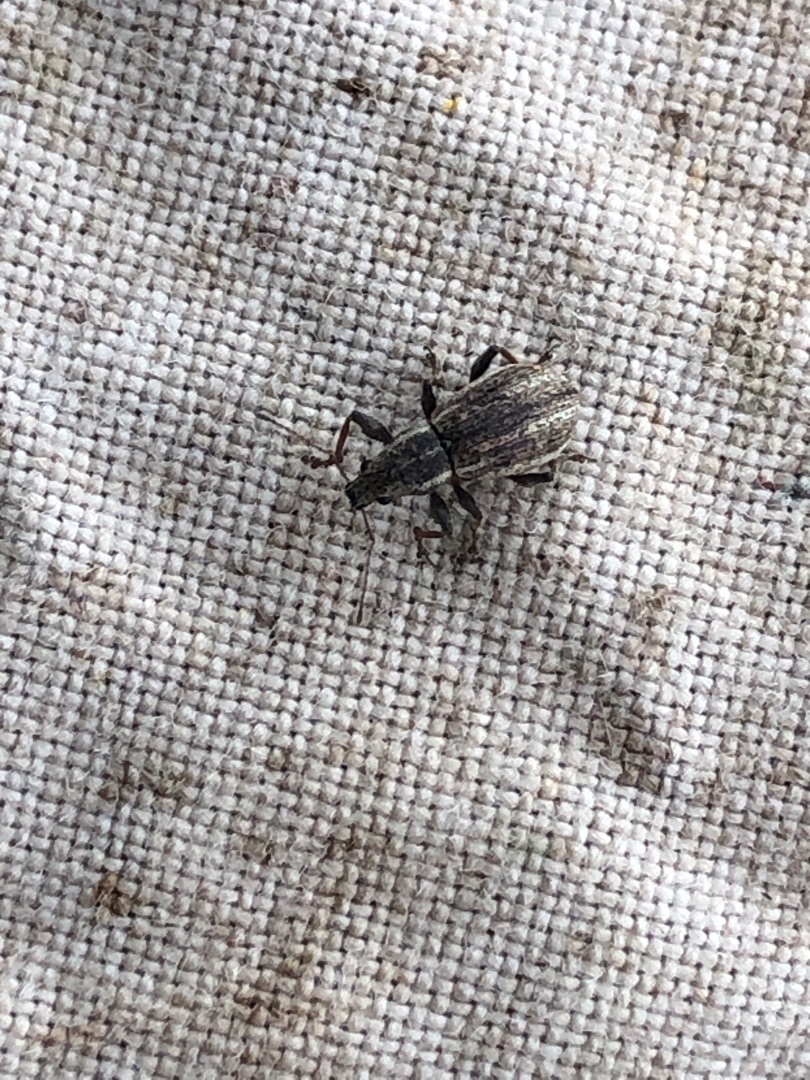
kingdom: Animalia
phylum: Arthropoda
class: Insecta
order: Coleoptera
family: Curculionidae
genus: Polydrusus
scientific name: Polydrusus confluens
